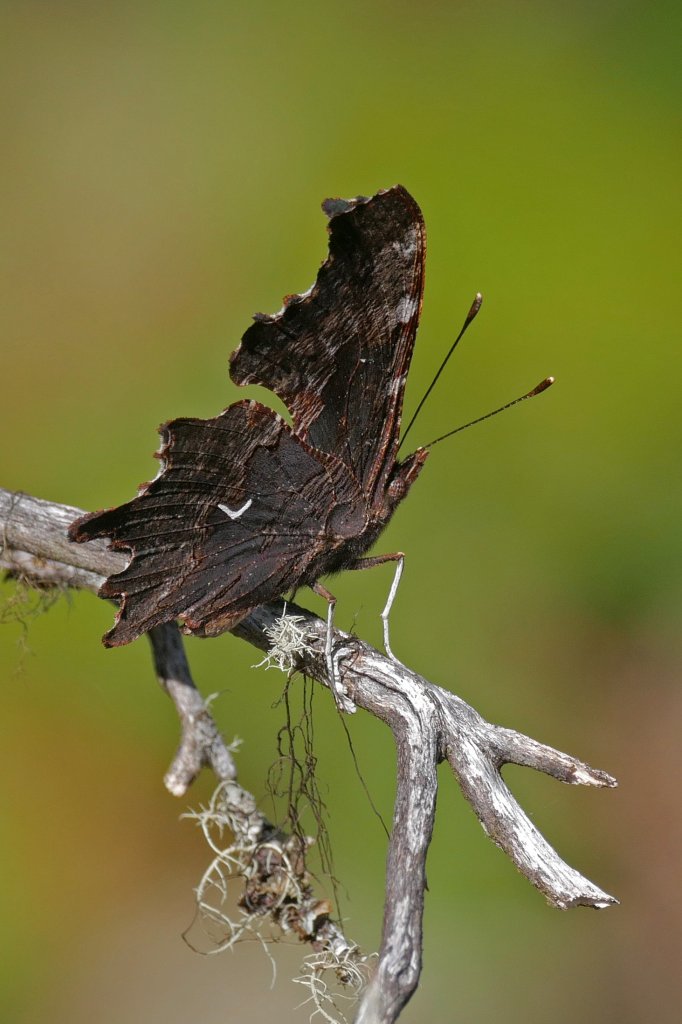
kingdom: Animalia
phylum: Arthropoda
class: Insecta
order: Lepidoptera
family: Nymphalidae
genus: Polygonia
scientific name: Polygonia oreas
